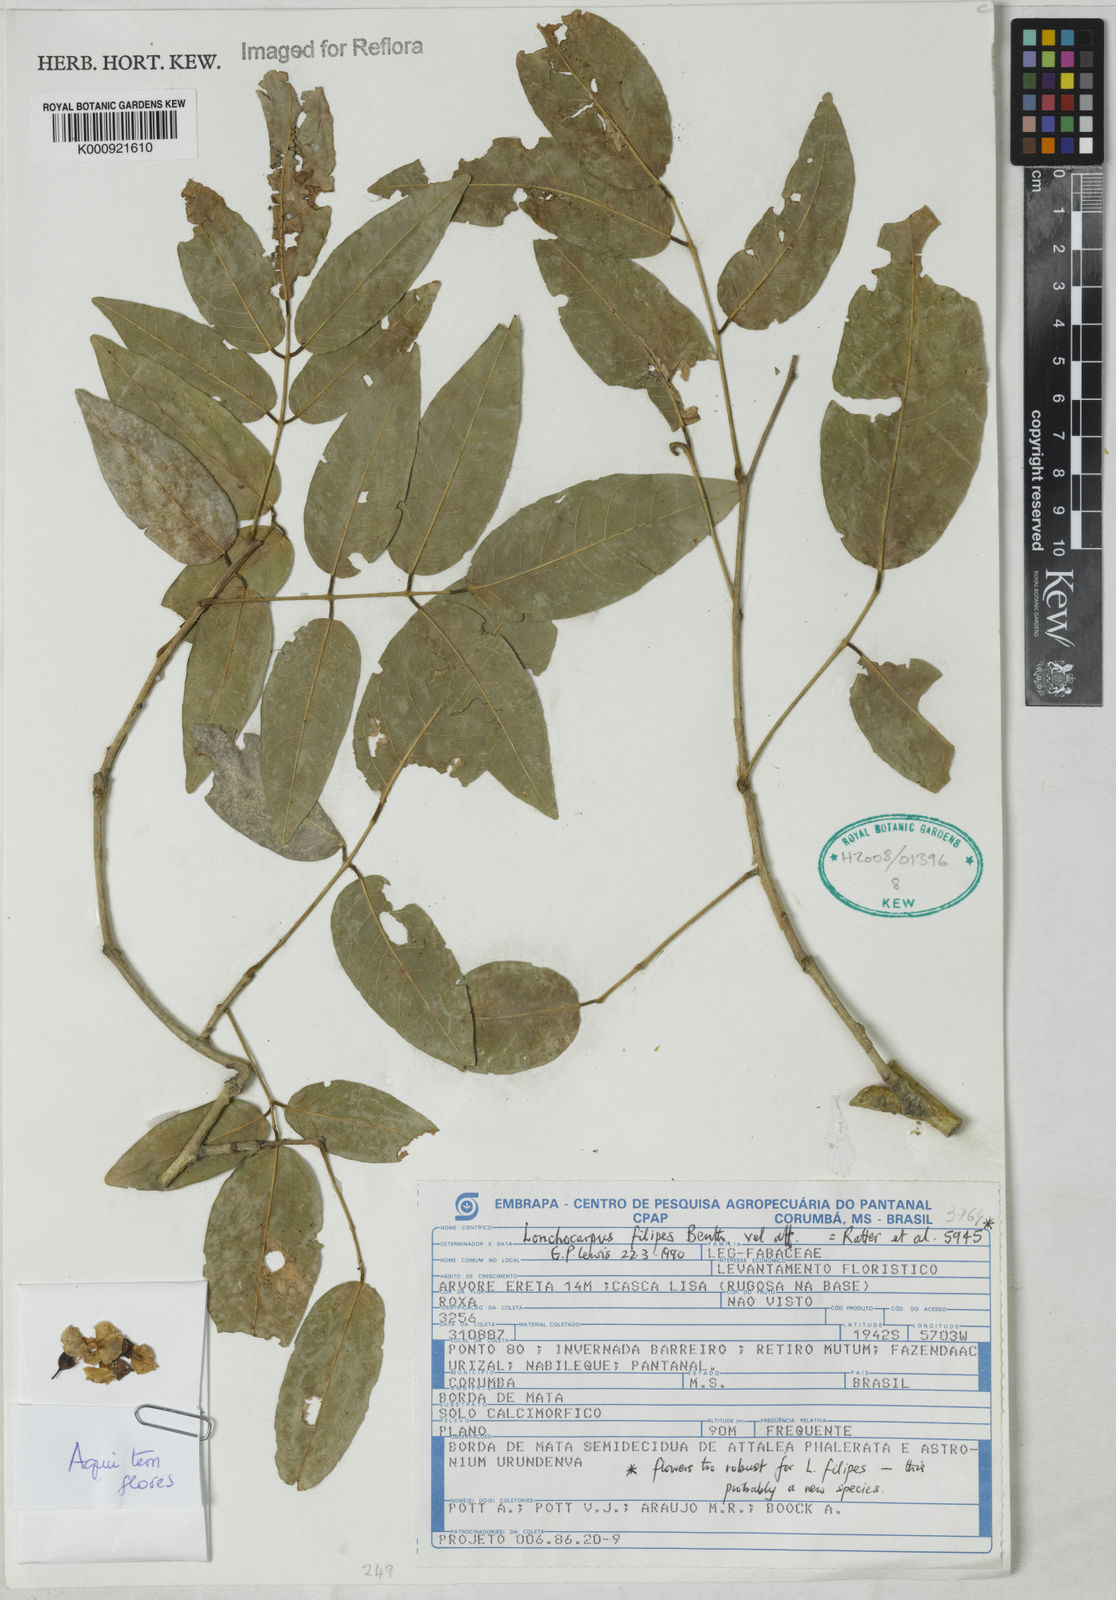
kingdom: Plantae
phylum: Tracheophyta
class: Magnoliopsida
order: Fabales
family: Fabaceae
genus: Muellera
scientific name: Muellera filipes
